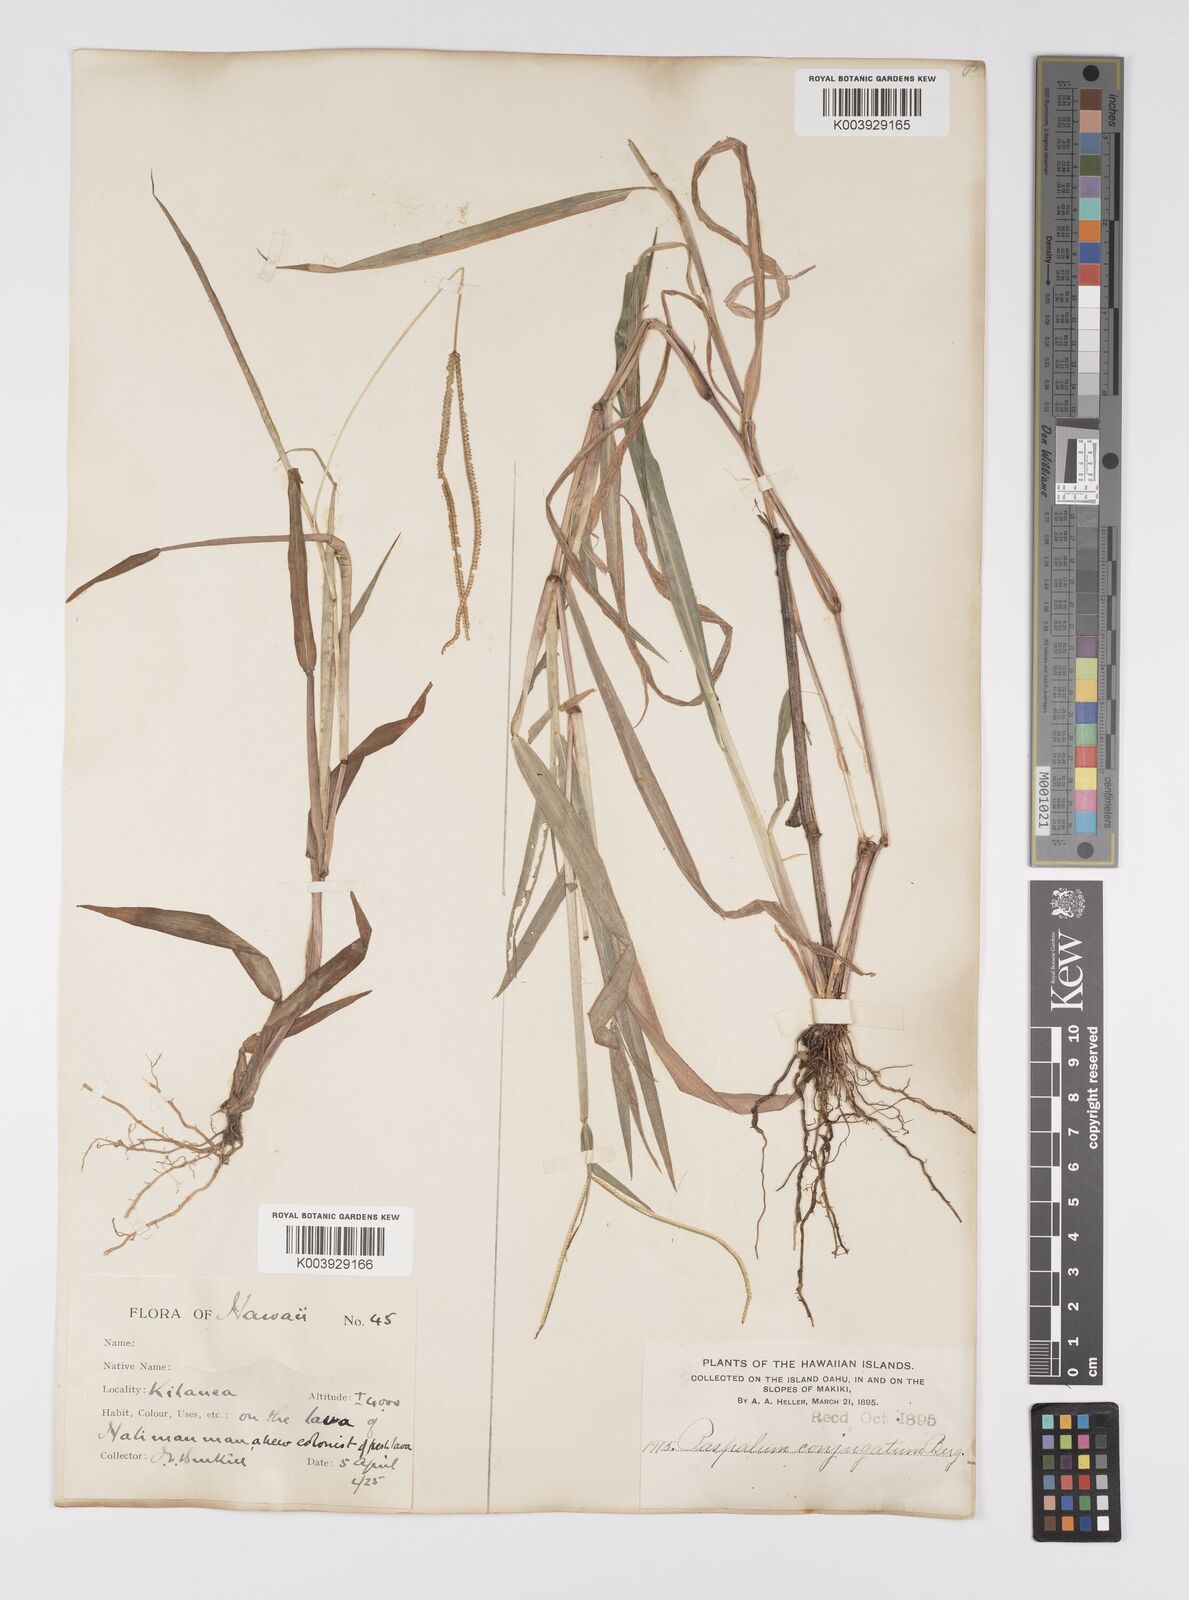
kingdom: Plantae
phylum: Tracheophyta
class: Liliopsida
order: Poales
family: Poaceae
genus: Paspalum
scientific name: Paspalum conjugatum
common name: Hilograss
